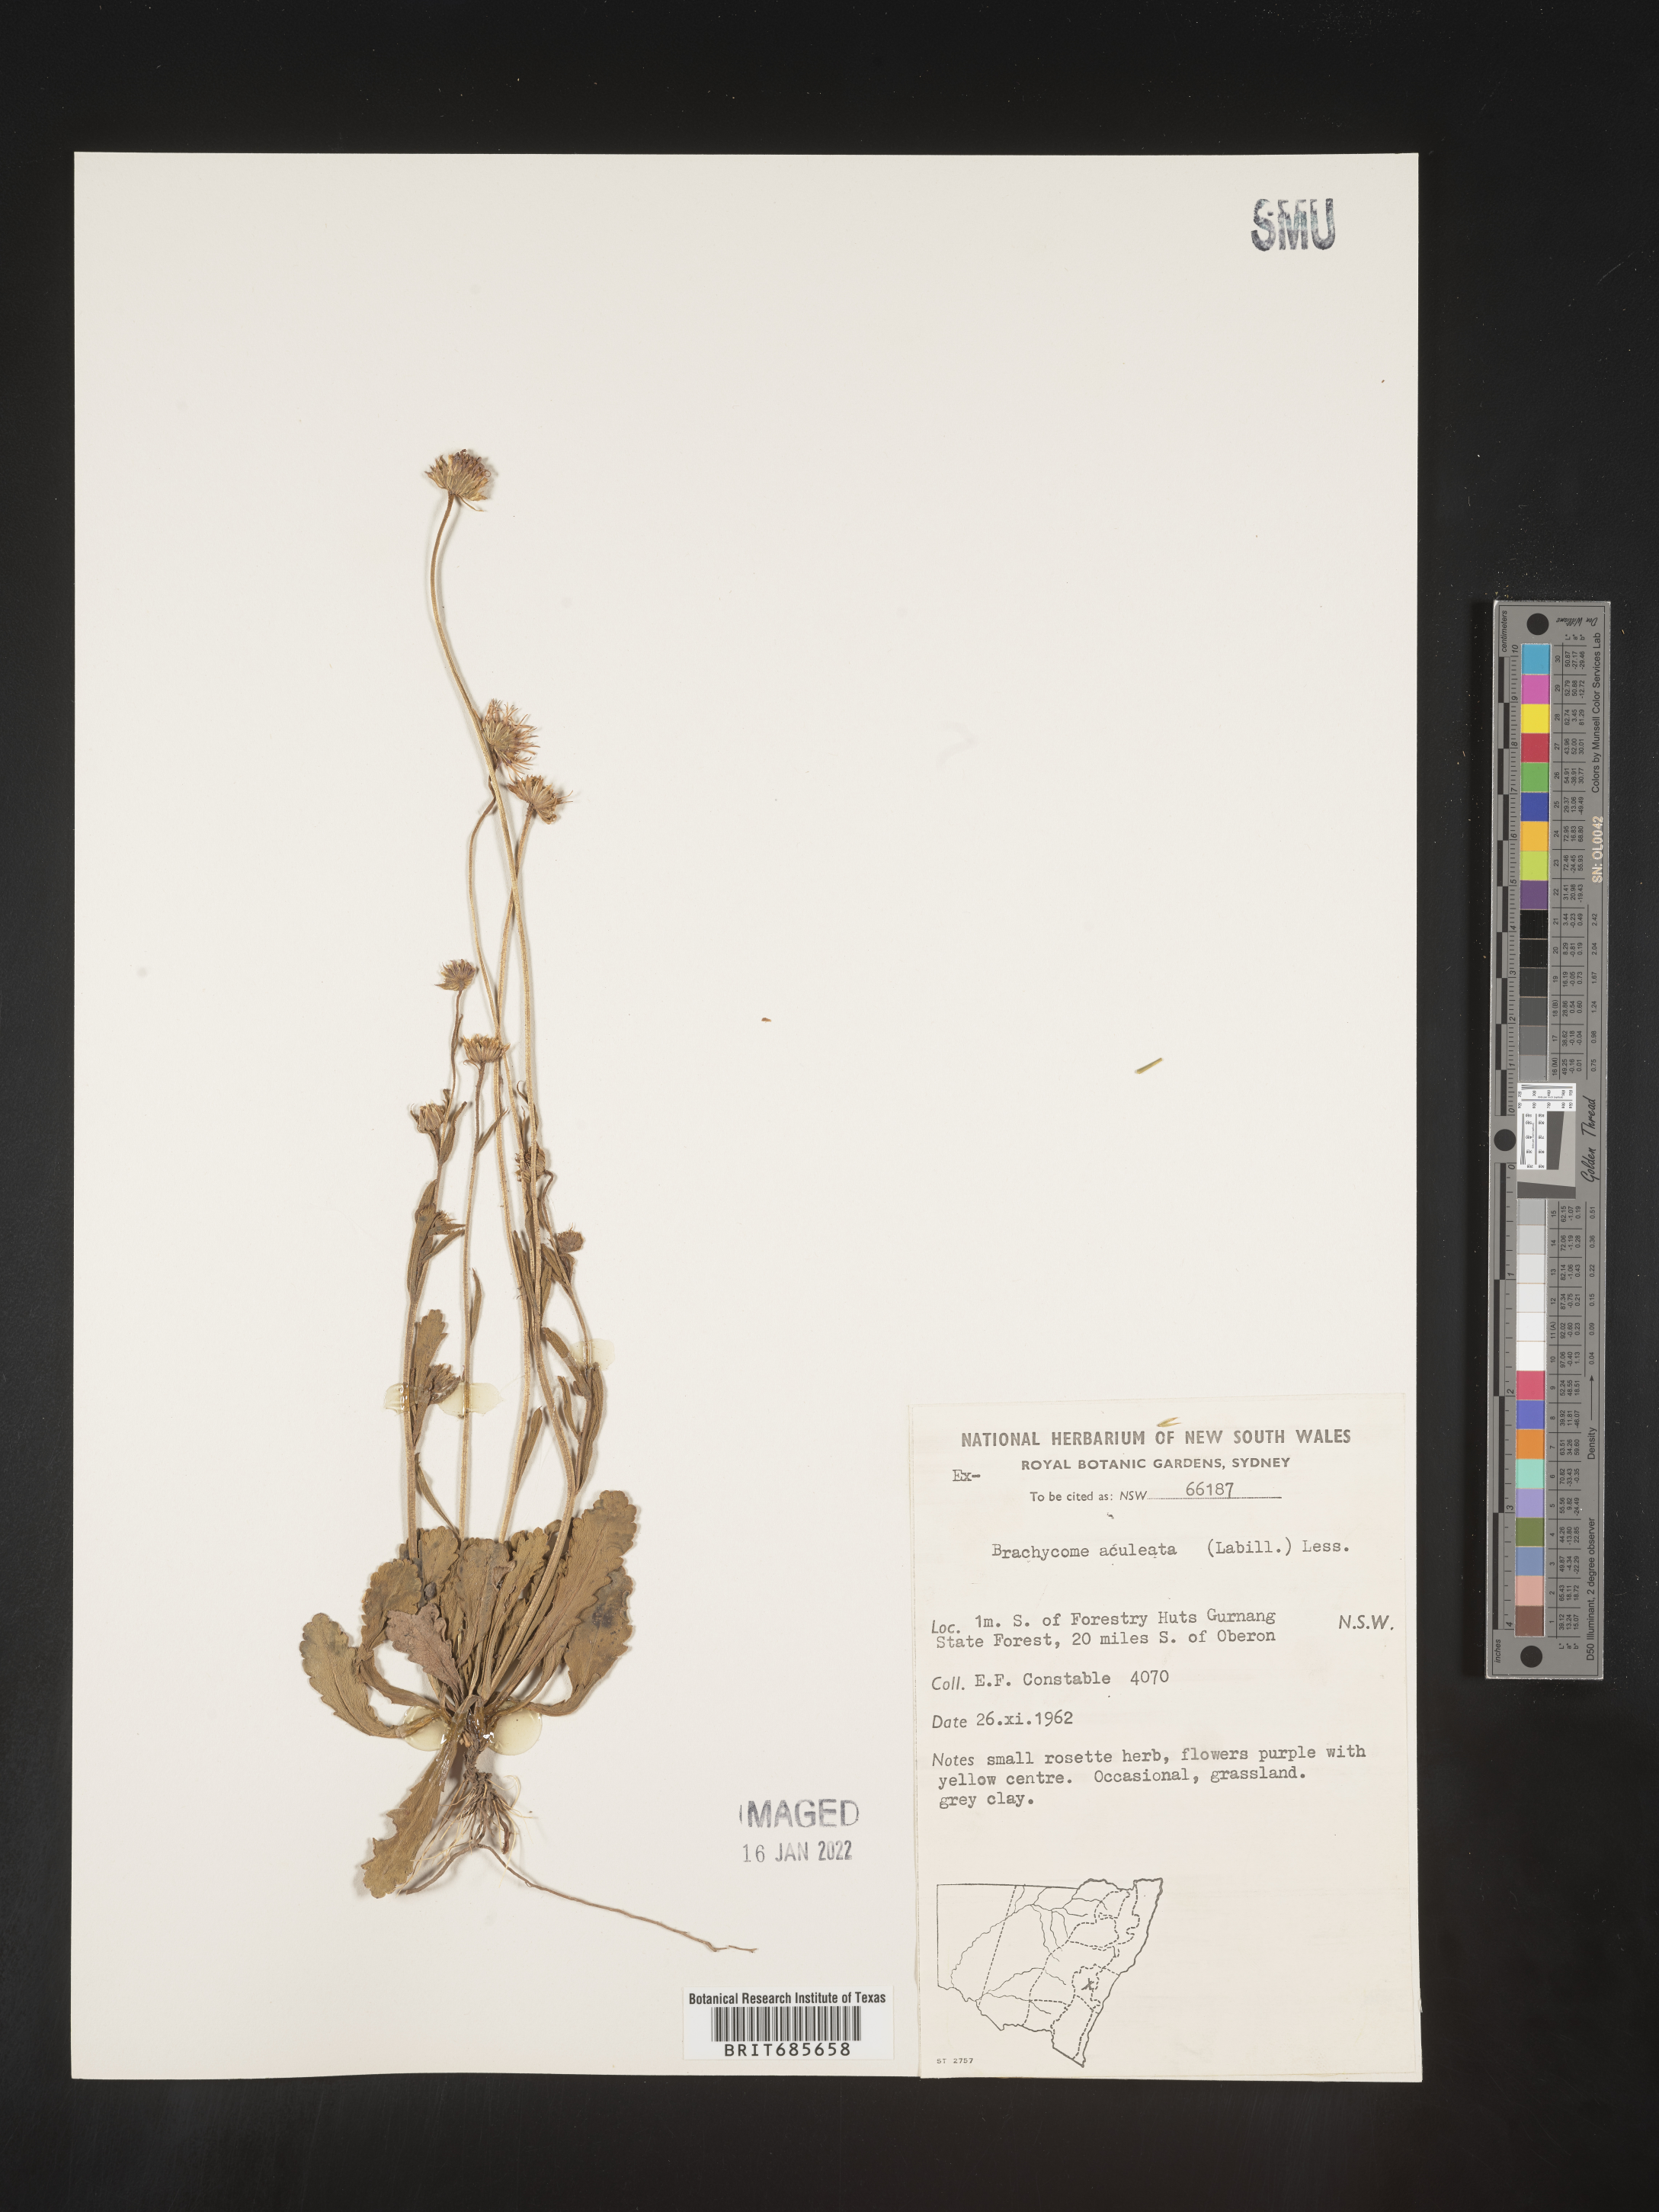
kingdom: Plantae
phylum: Tracheophyta
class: Magnoliopsida
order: Asterales
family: Asteraceae
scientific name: Asteraceae
